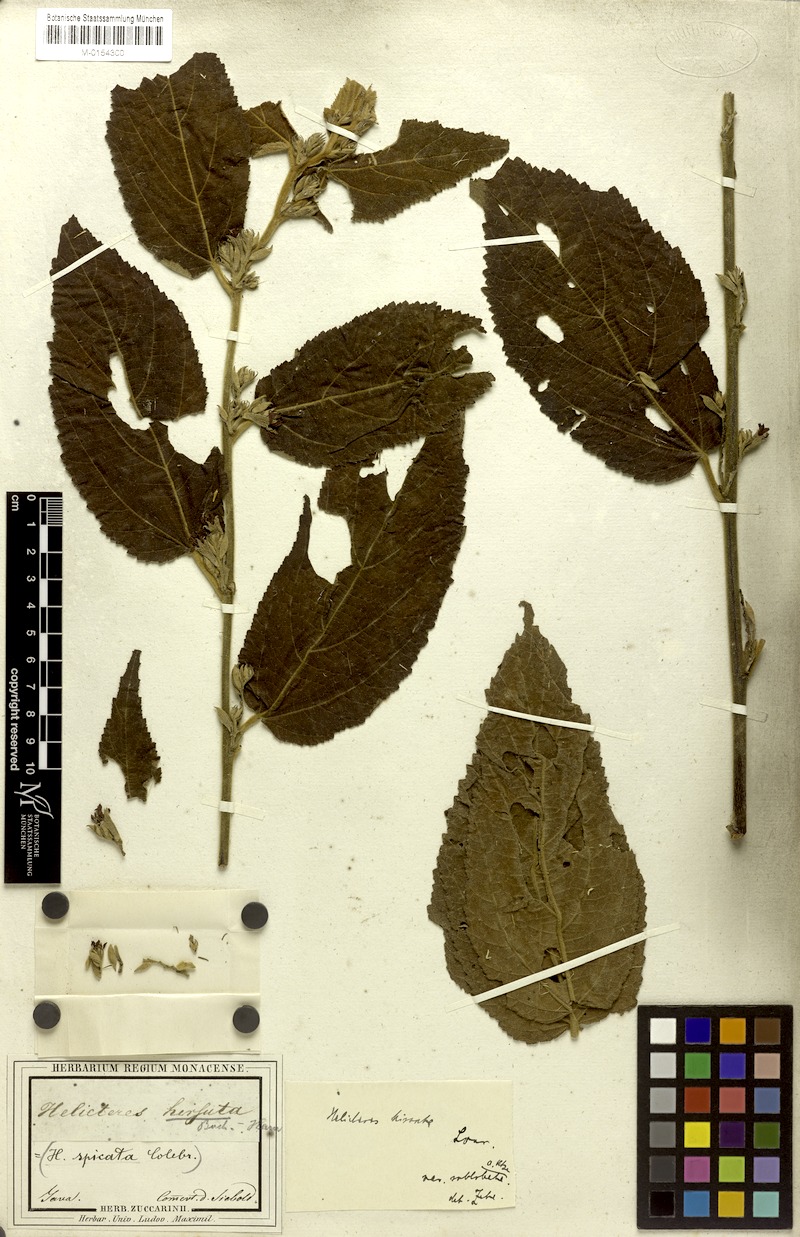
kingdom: Plantae
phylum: Tracheophyta
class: Magnoliopsida
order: Malvales
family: Malvaceae
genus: Helicteres
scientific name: Helicteres hirsuta
